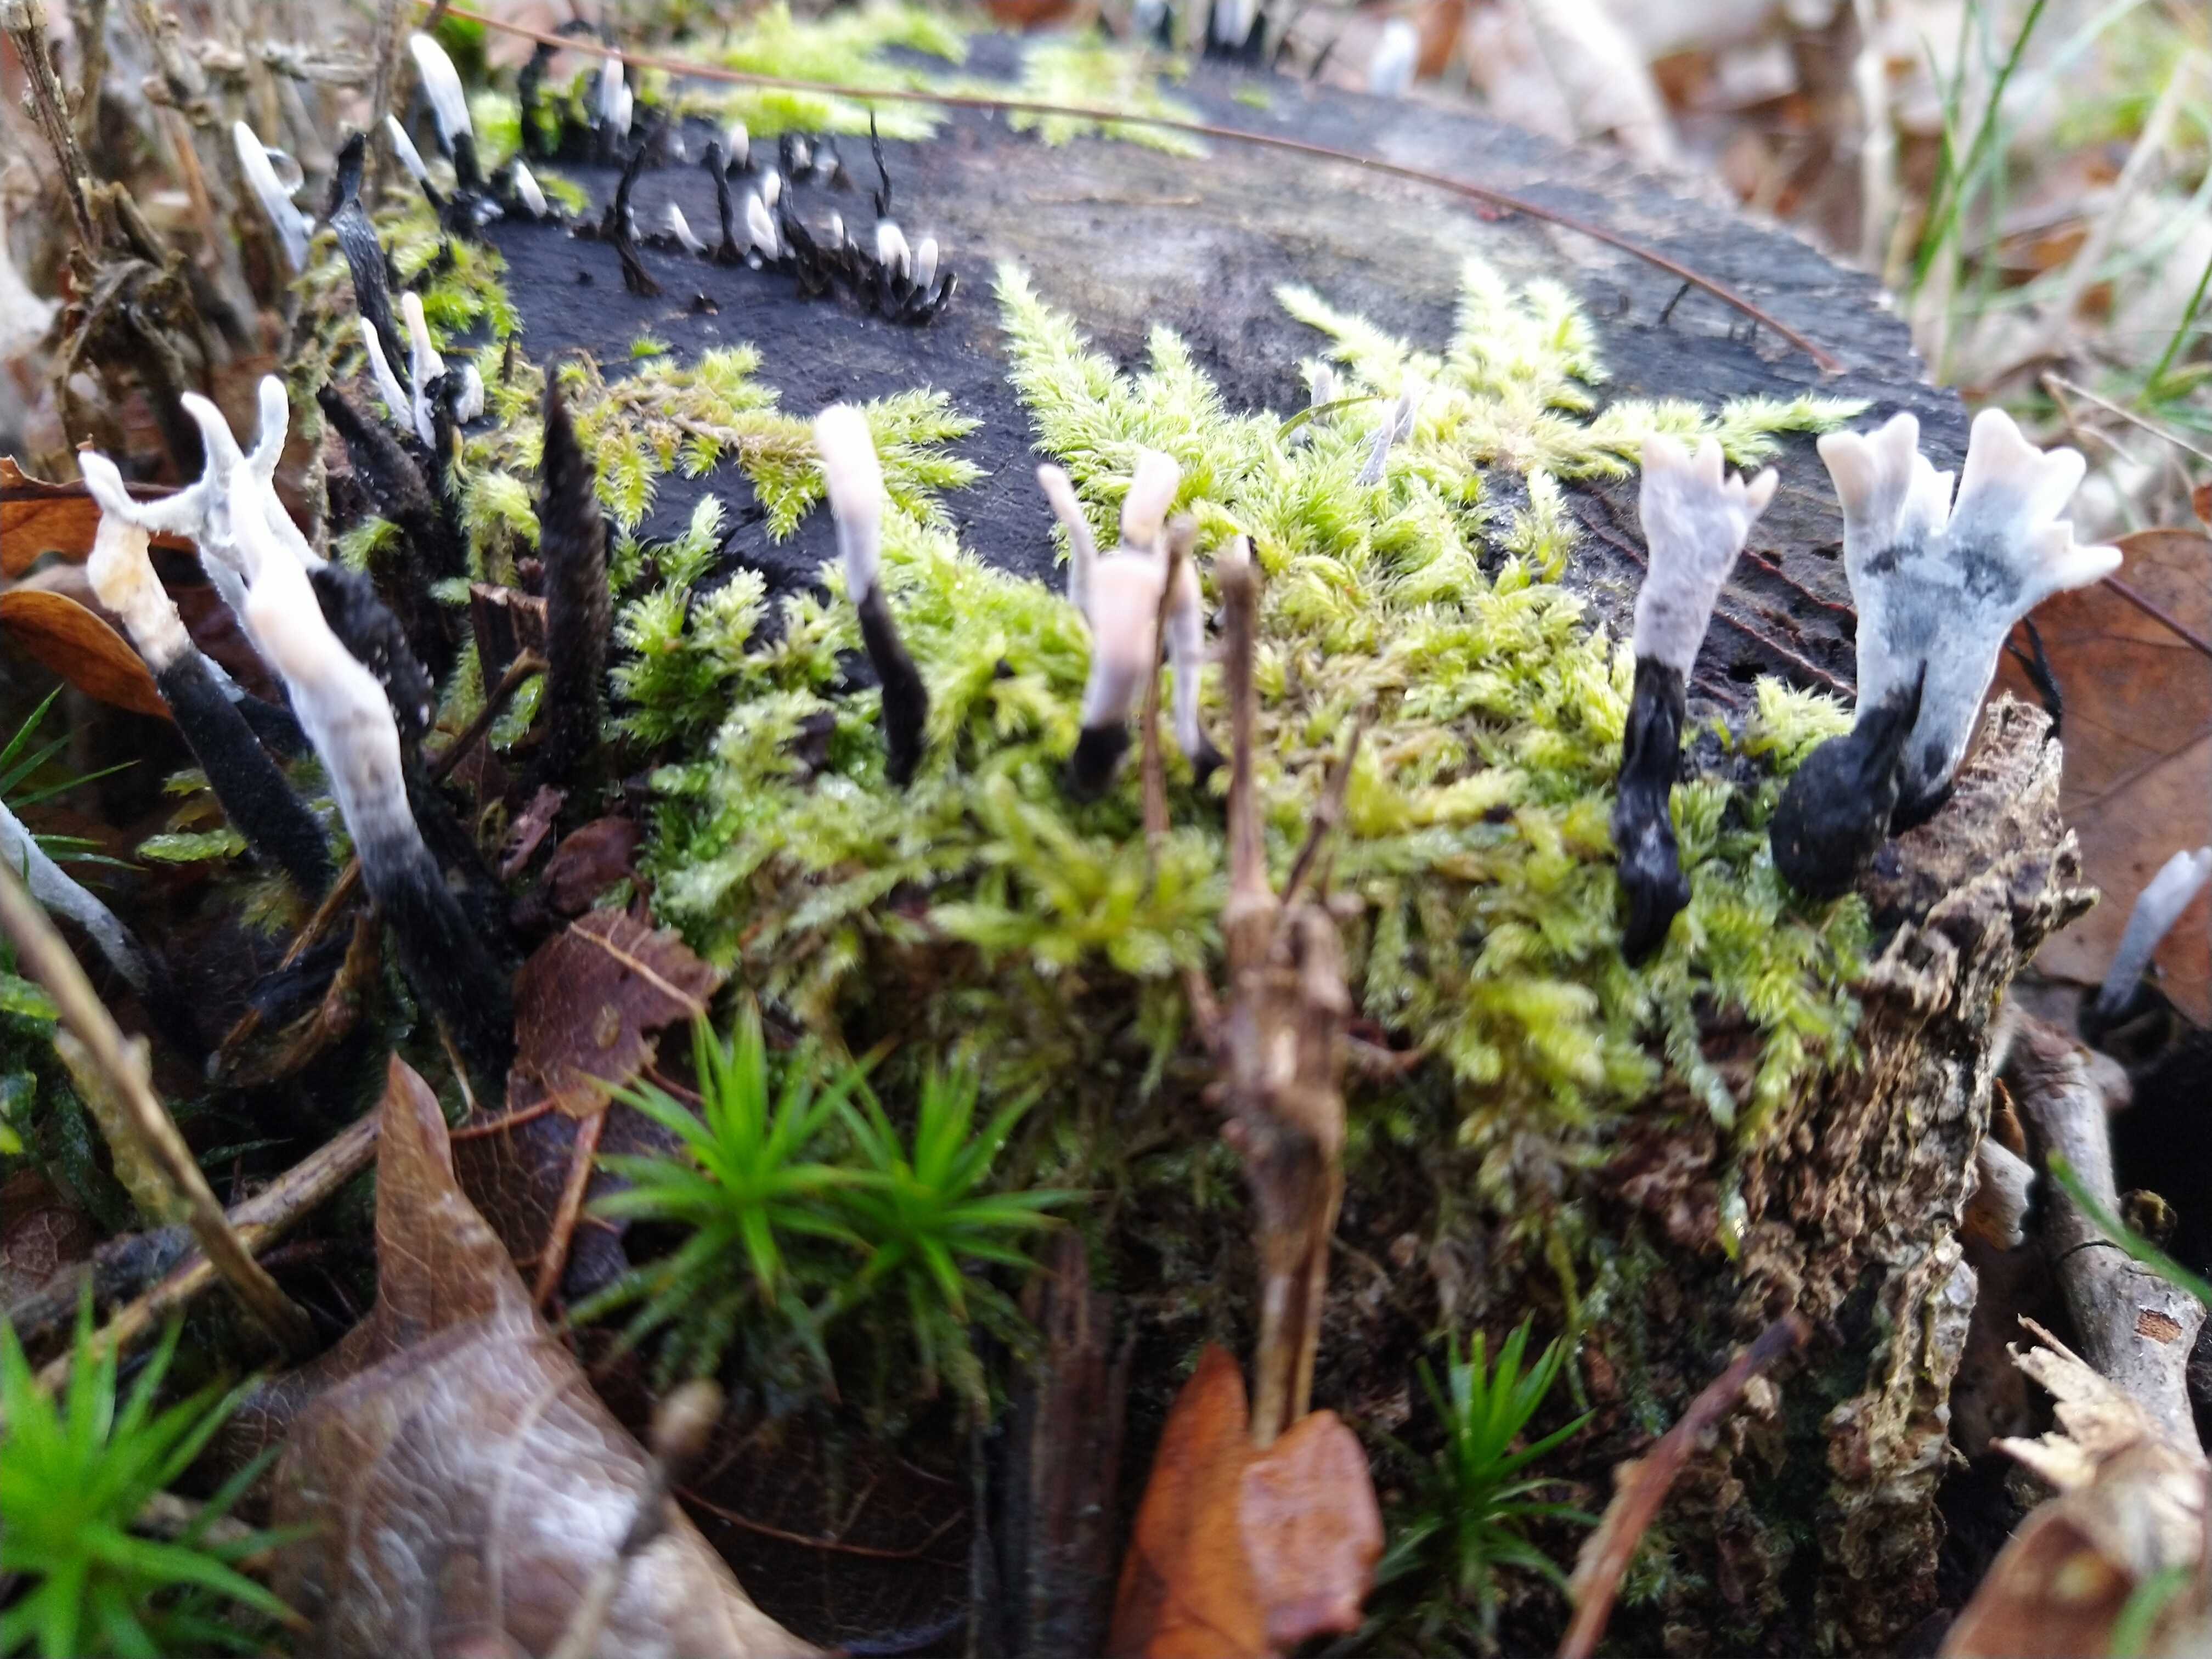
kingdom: Fungi
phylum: Ascomycota
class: Sordariomycetes
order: Xylariales
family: Xylariaceae
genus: Xylaria
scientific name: Xylaria hypoxylon
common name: grenet stødsvamp
